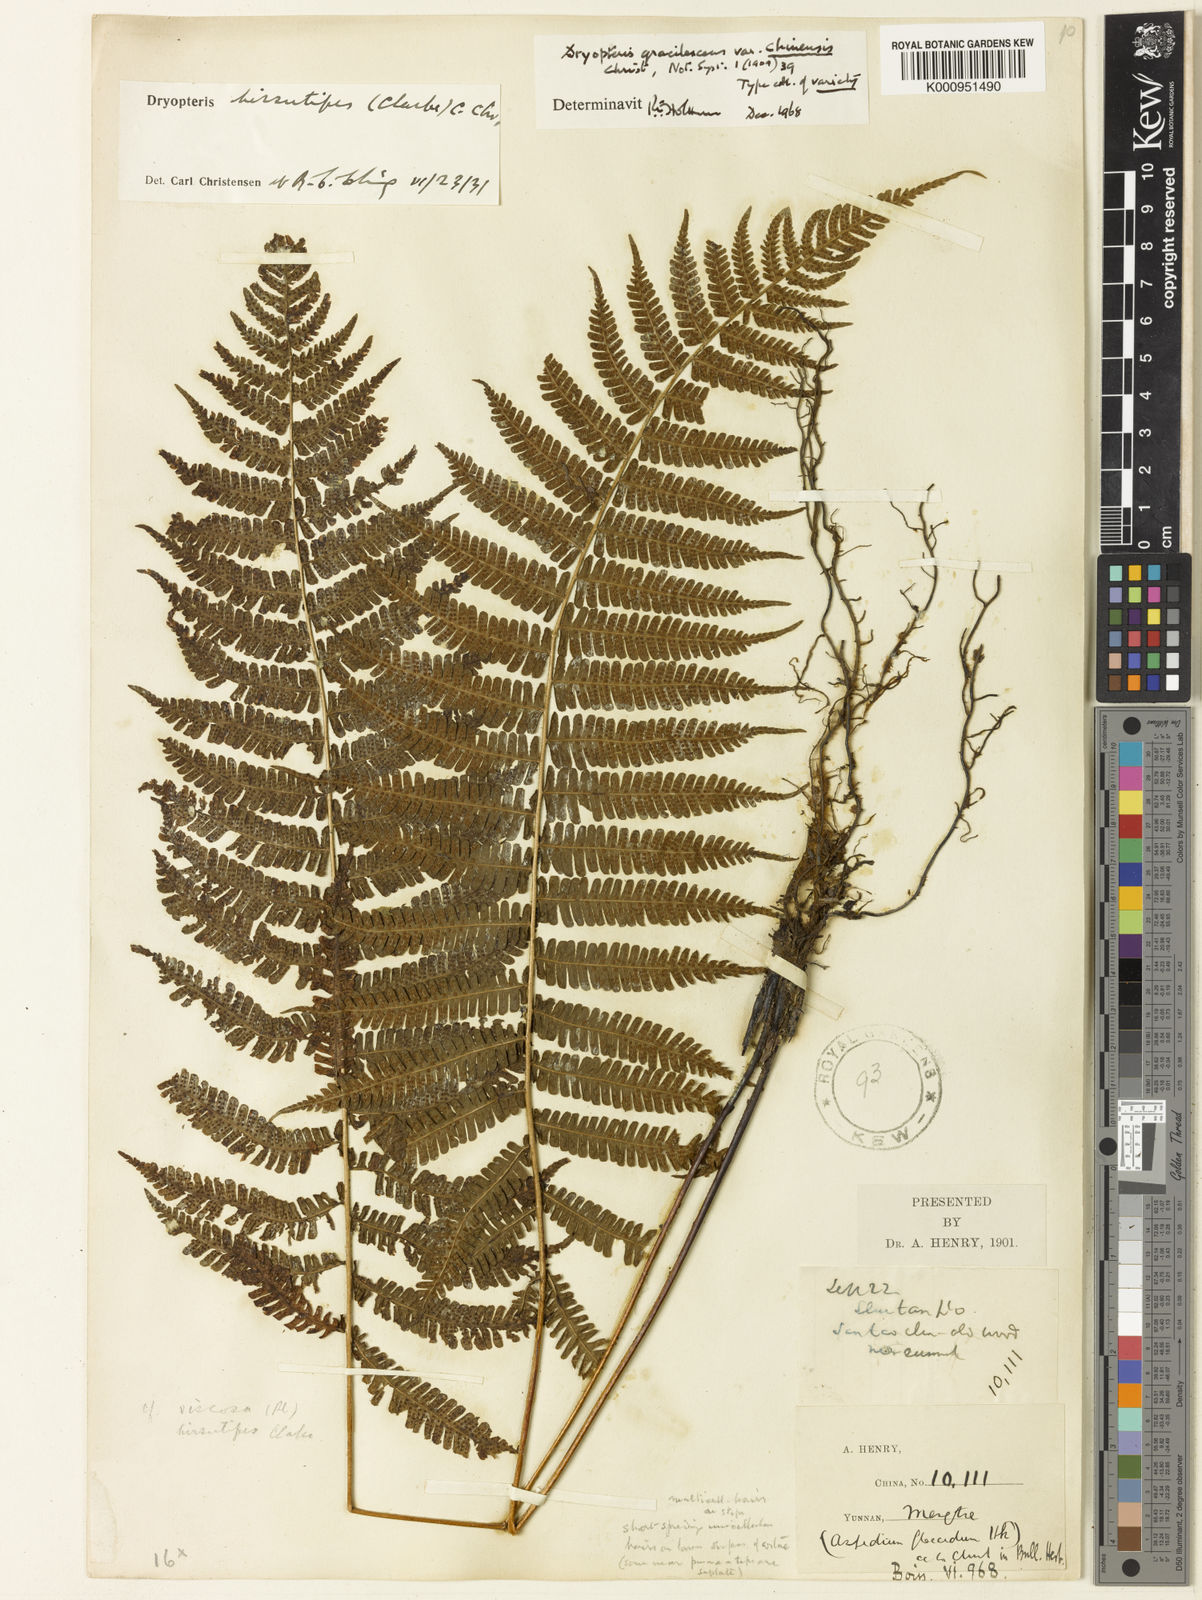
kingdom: Plantae
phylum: Tracheophyta
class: Polypodiopsida
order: Polypodiales
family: Thelypteridaceae
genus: Coryphopteris
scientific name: Coryphopteris hirsutipes
